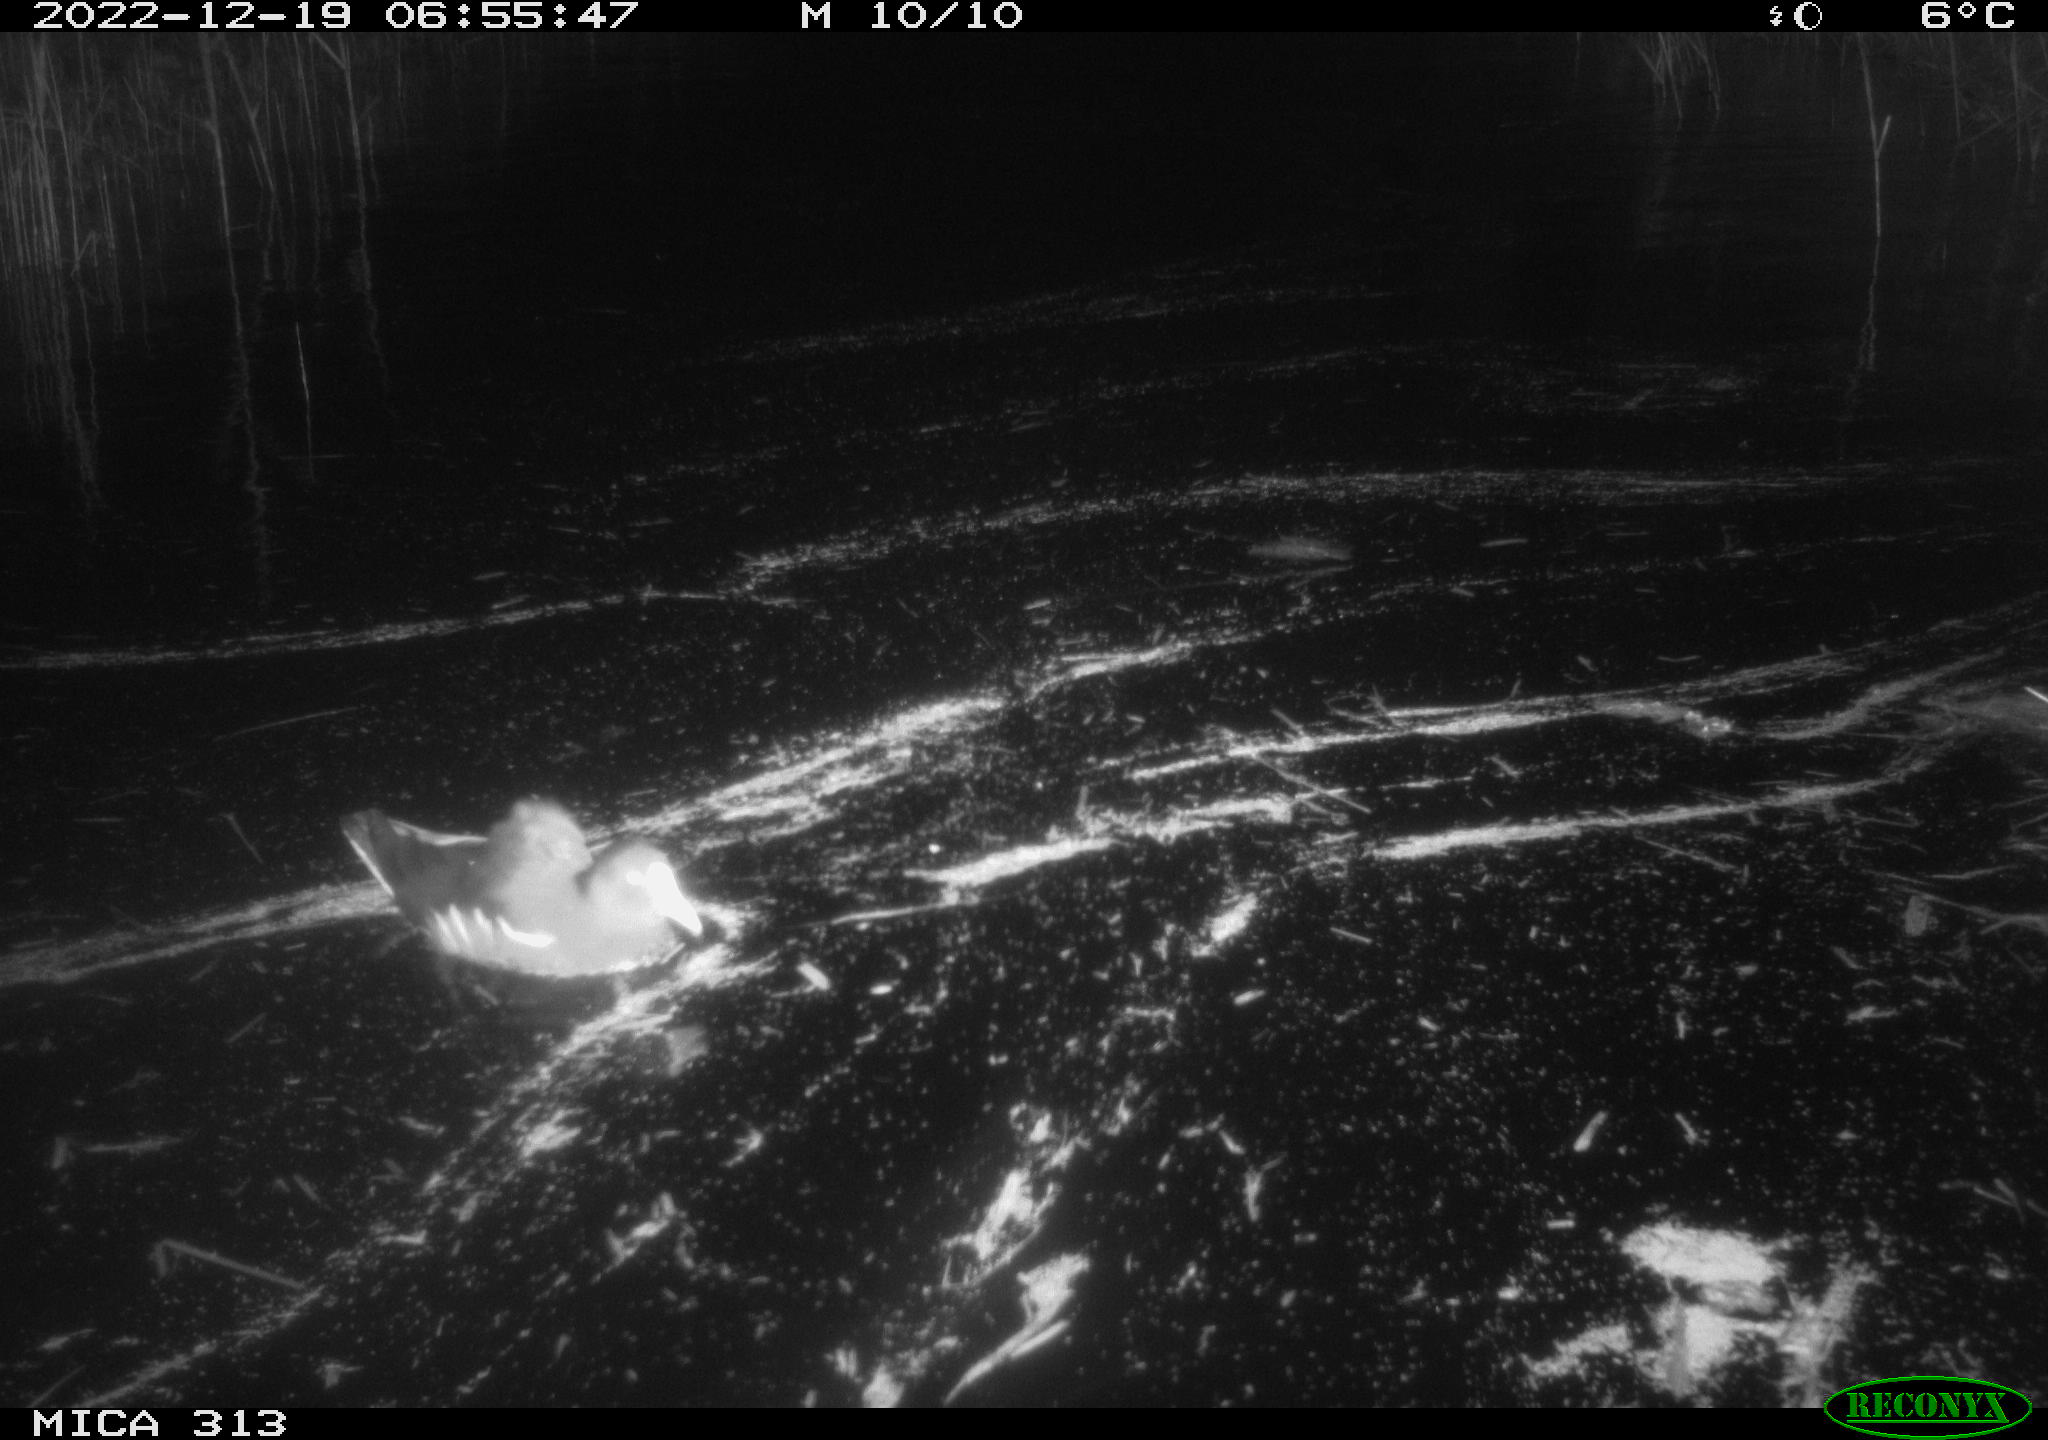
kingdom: Animalia
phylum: Chordata
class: Aves
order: Gruiformes
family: Rallidae
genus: Gallinula
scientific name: Gallinula chloropus
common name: Common moorhen
